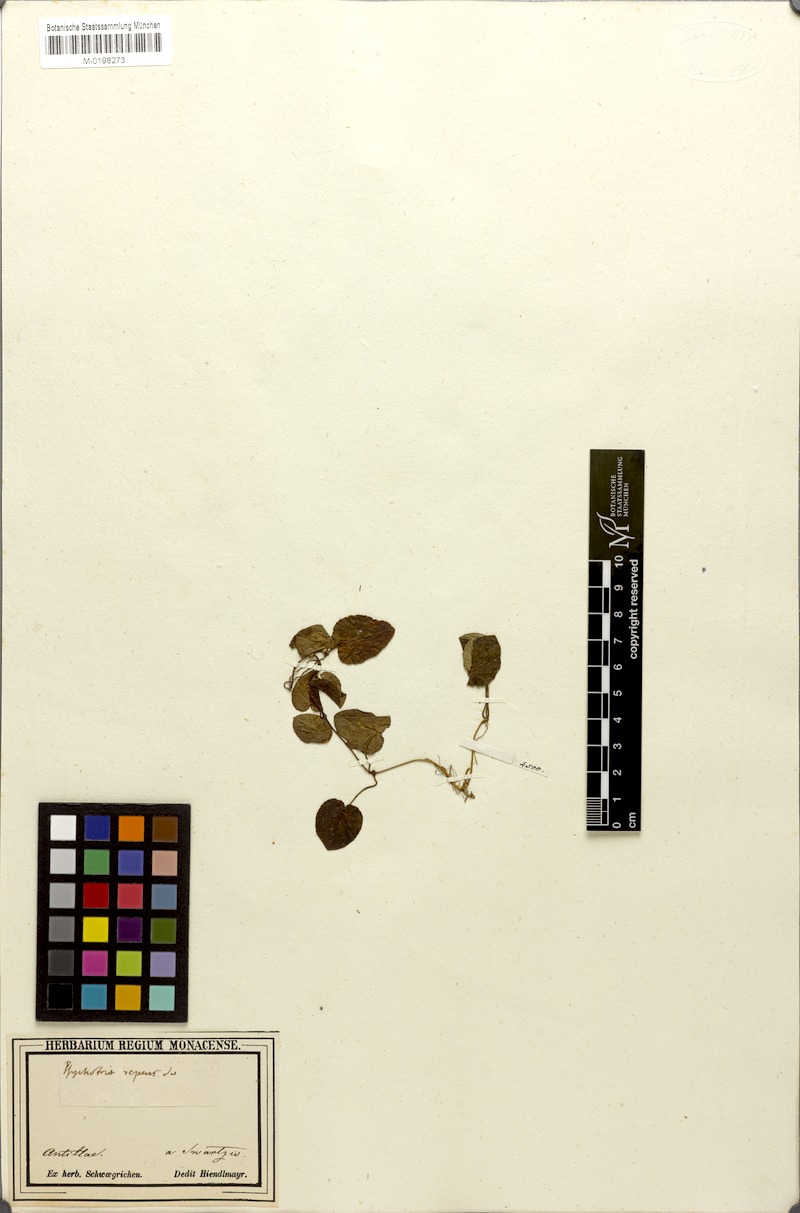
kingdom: Plantae
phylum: Tracheophyta
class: Magnoliopsida
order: Gentianales
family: Rubiaceae
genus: Geophila
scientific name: Geophila repens
